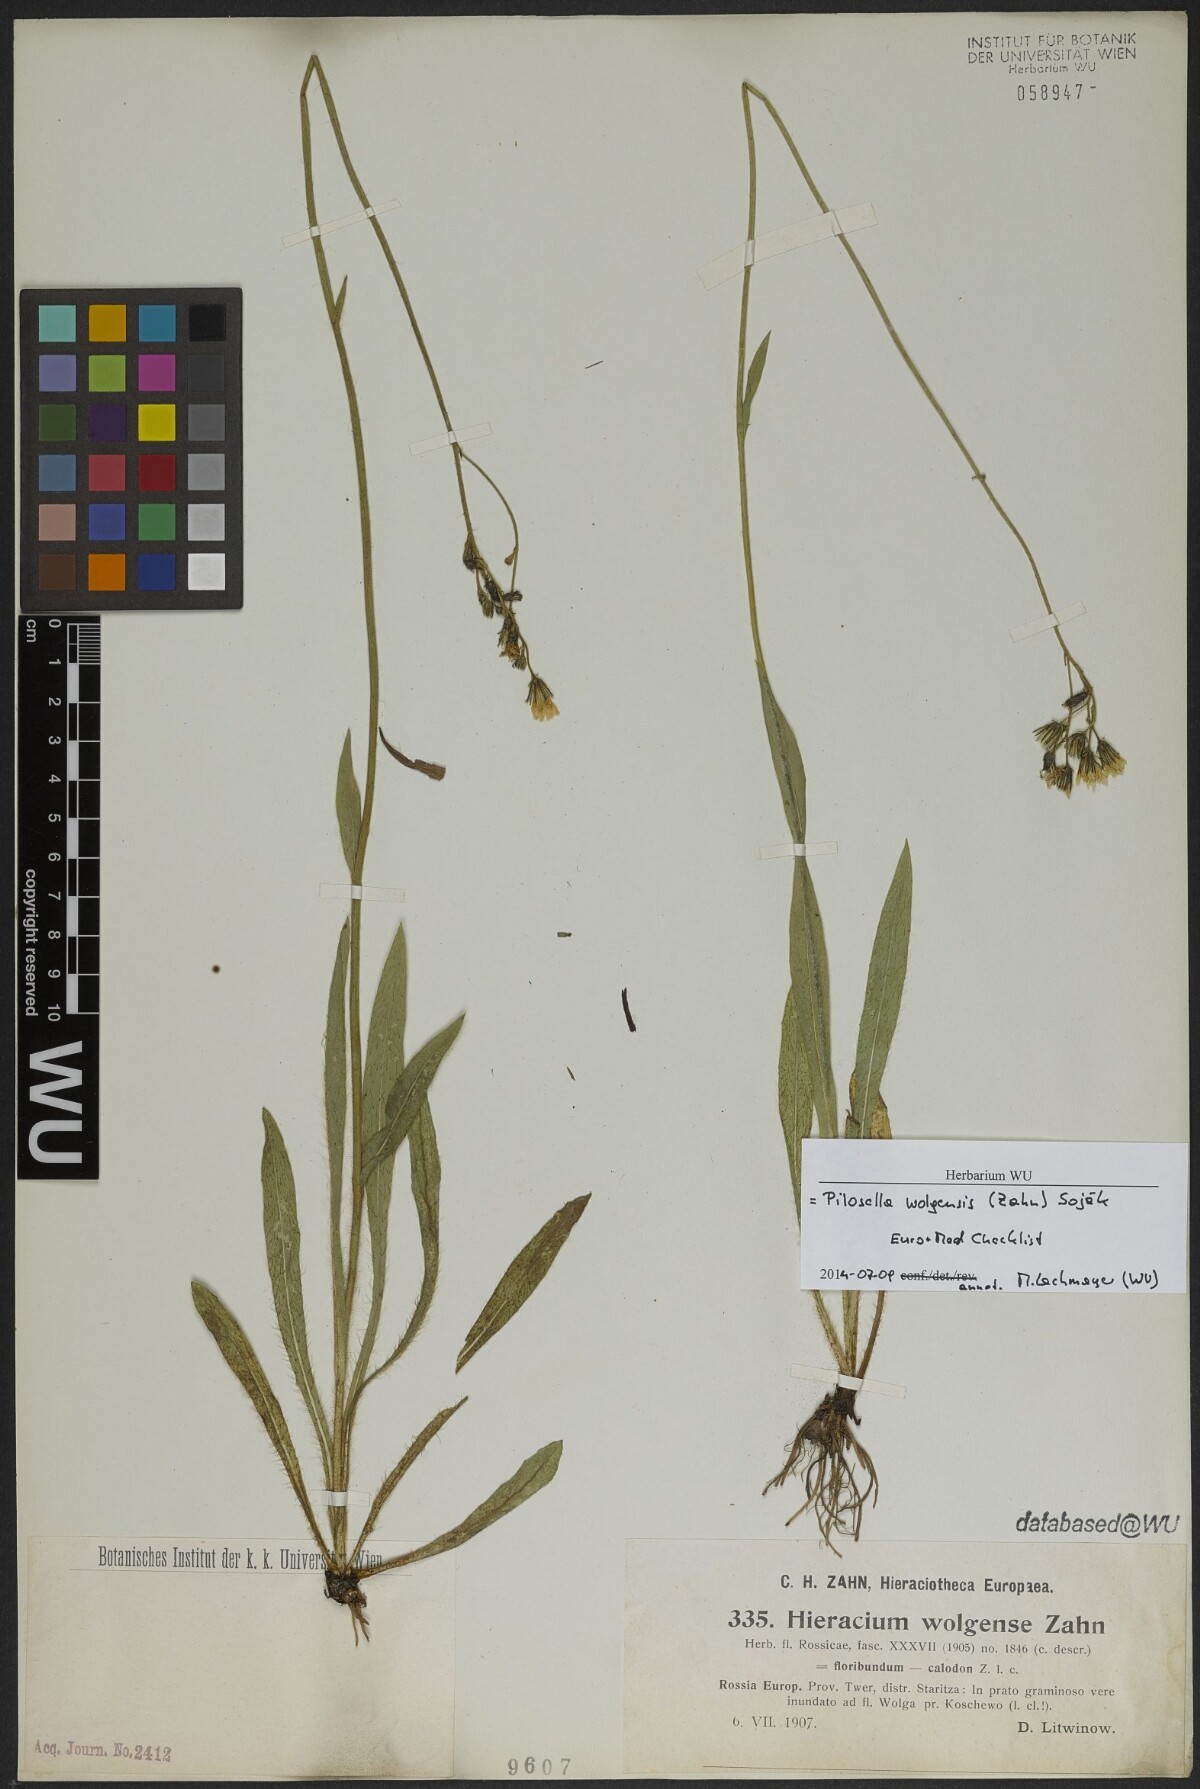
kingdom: Plantae
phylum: Tracheophyta
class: Magnoliopsida
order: Asterales
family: Asteraceae
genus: Pilosella
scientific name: Pilosella wolgensis
